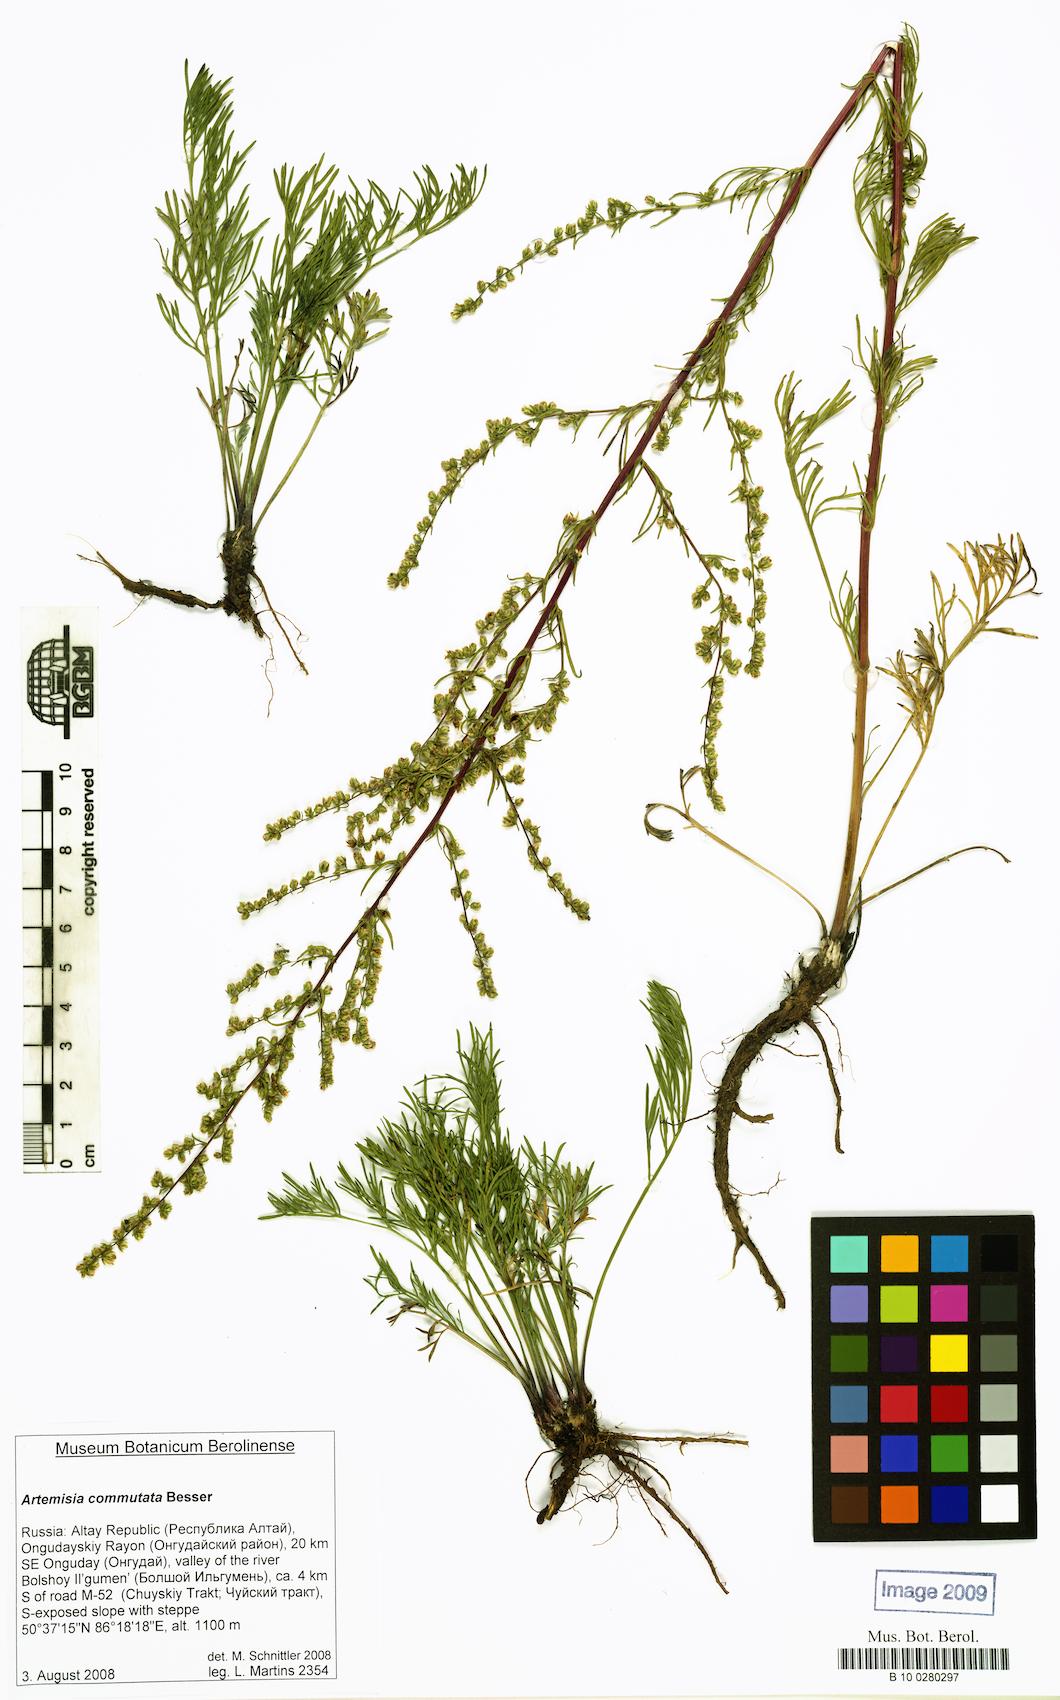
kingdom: Plantae
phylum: Tracheophyta
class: Magnoliopsida
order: Asterales
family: Asteraceae
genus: Artemisia
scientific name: Artemisia pubescens
